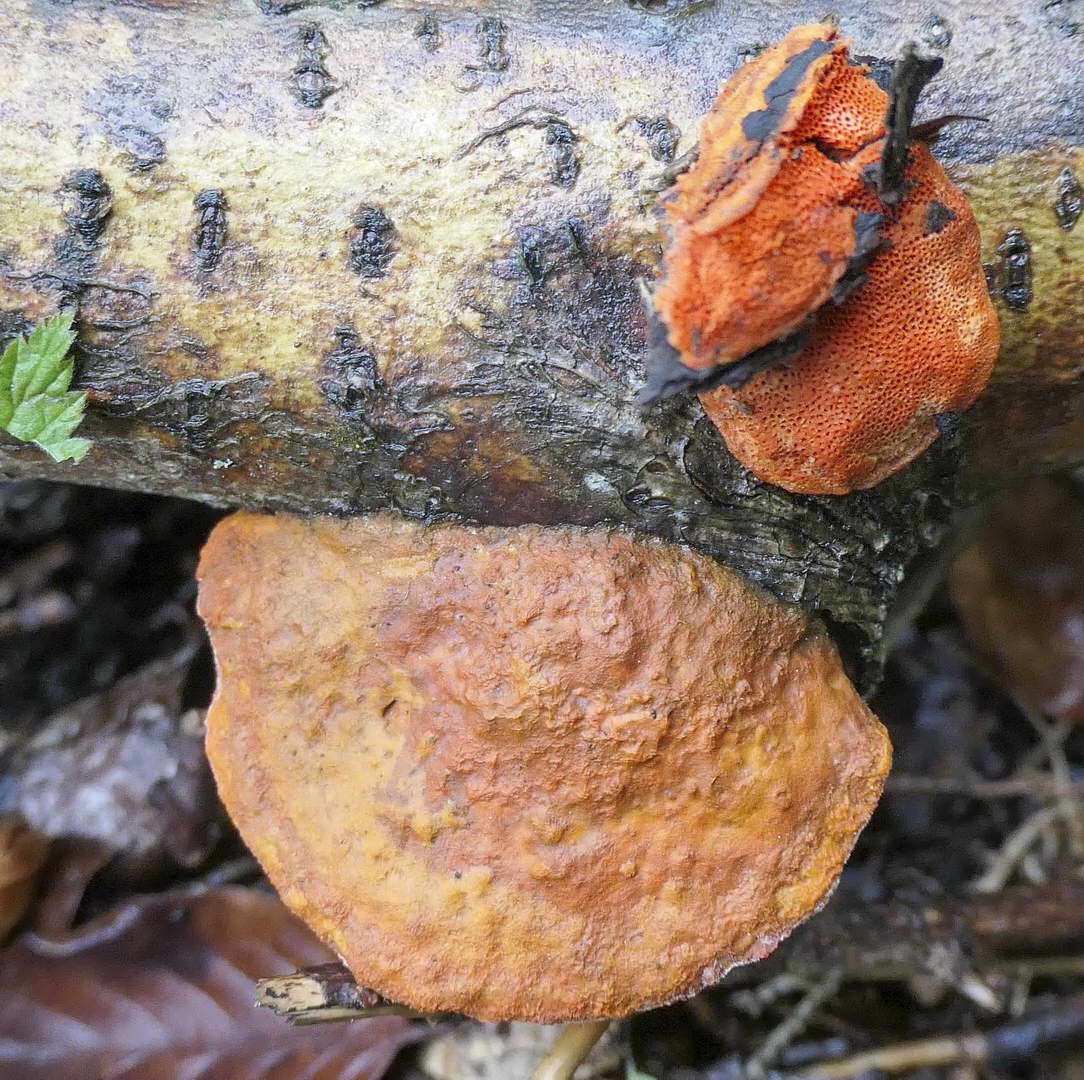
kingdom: Fungi
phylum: Basidiomycota
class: Agaricomycetes
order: Polyporales
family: Polyporaceae
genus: Trametes
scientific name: Trametes cinnabarina
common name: cinnoberporesvamp
